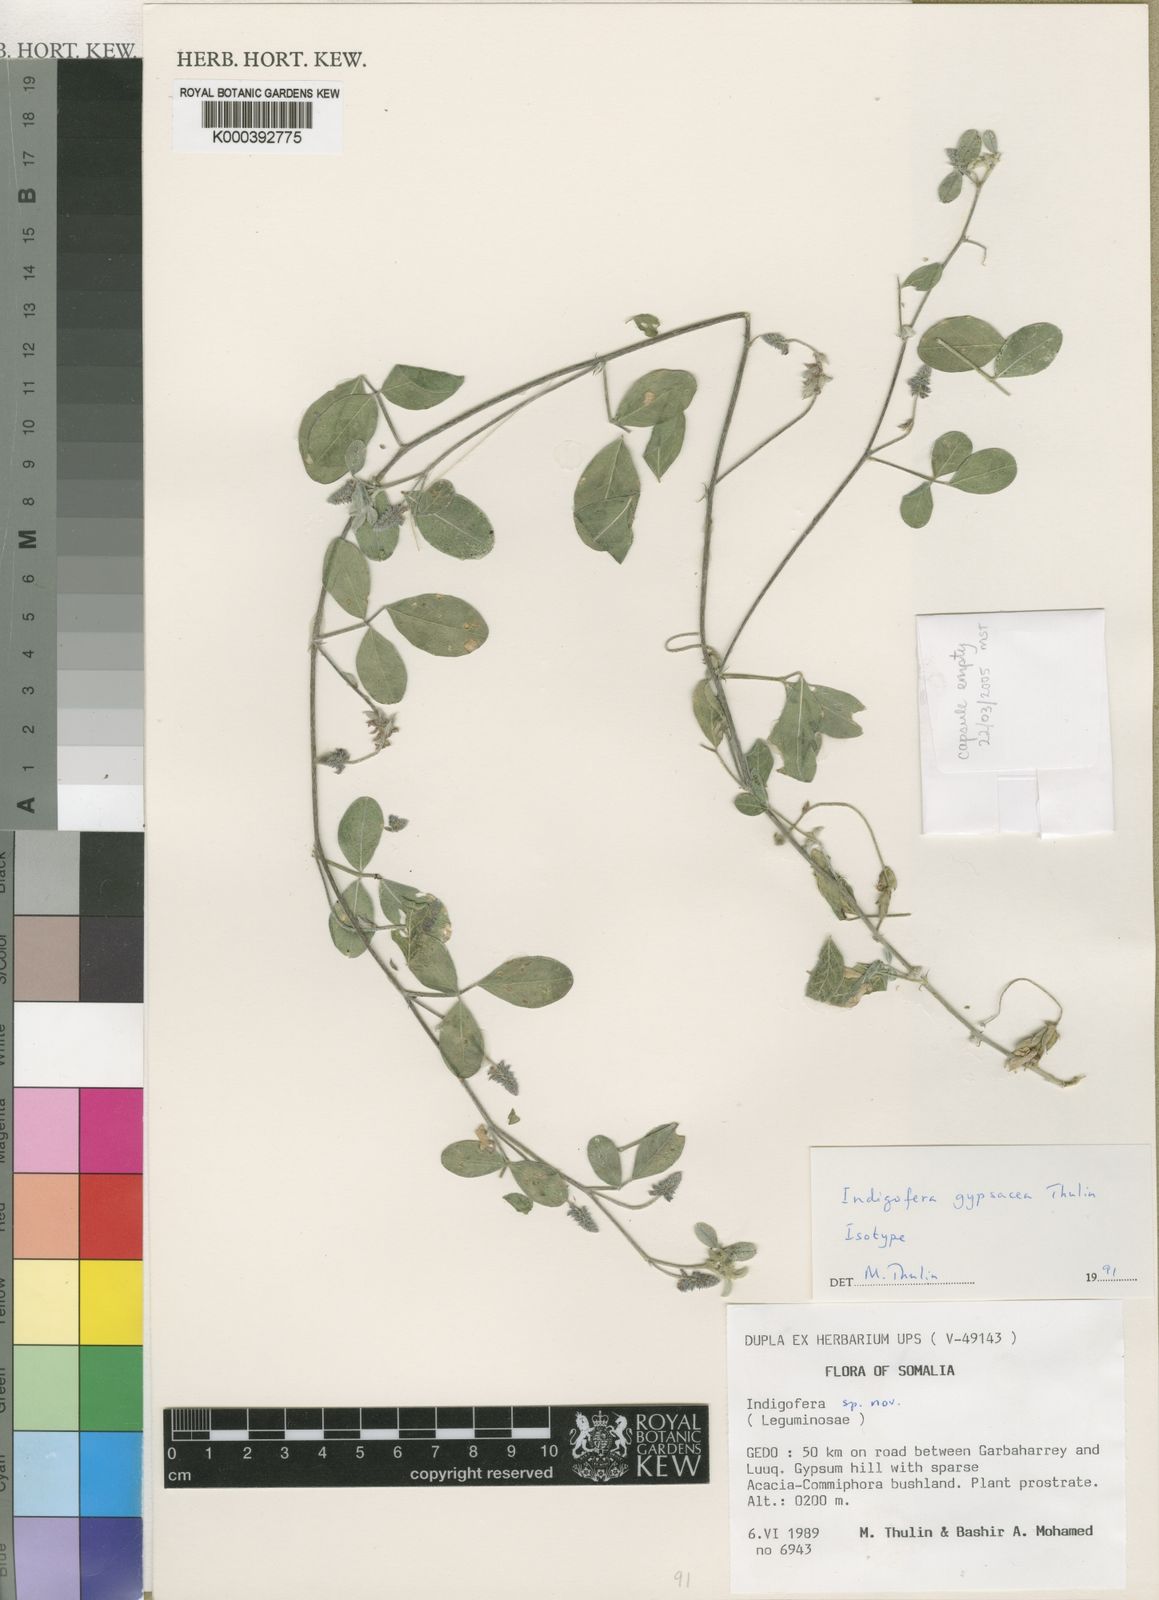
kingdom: Plantae
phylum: Tracheophyta
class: Magnoliopsida
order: Fabales
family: Fabaceae
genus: Indigofera
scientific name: Indigofera gypsacea
